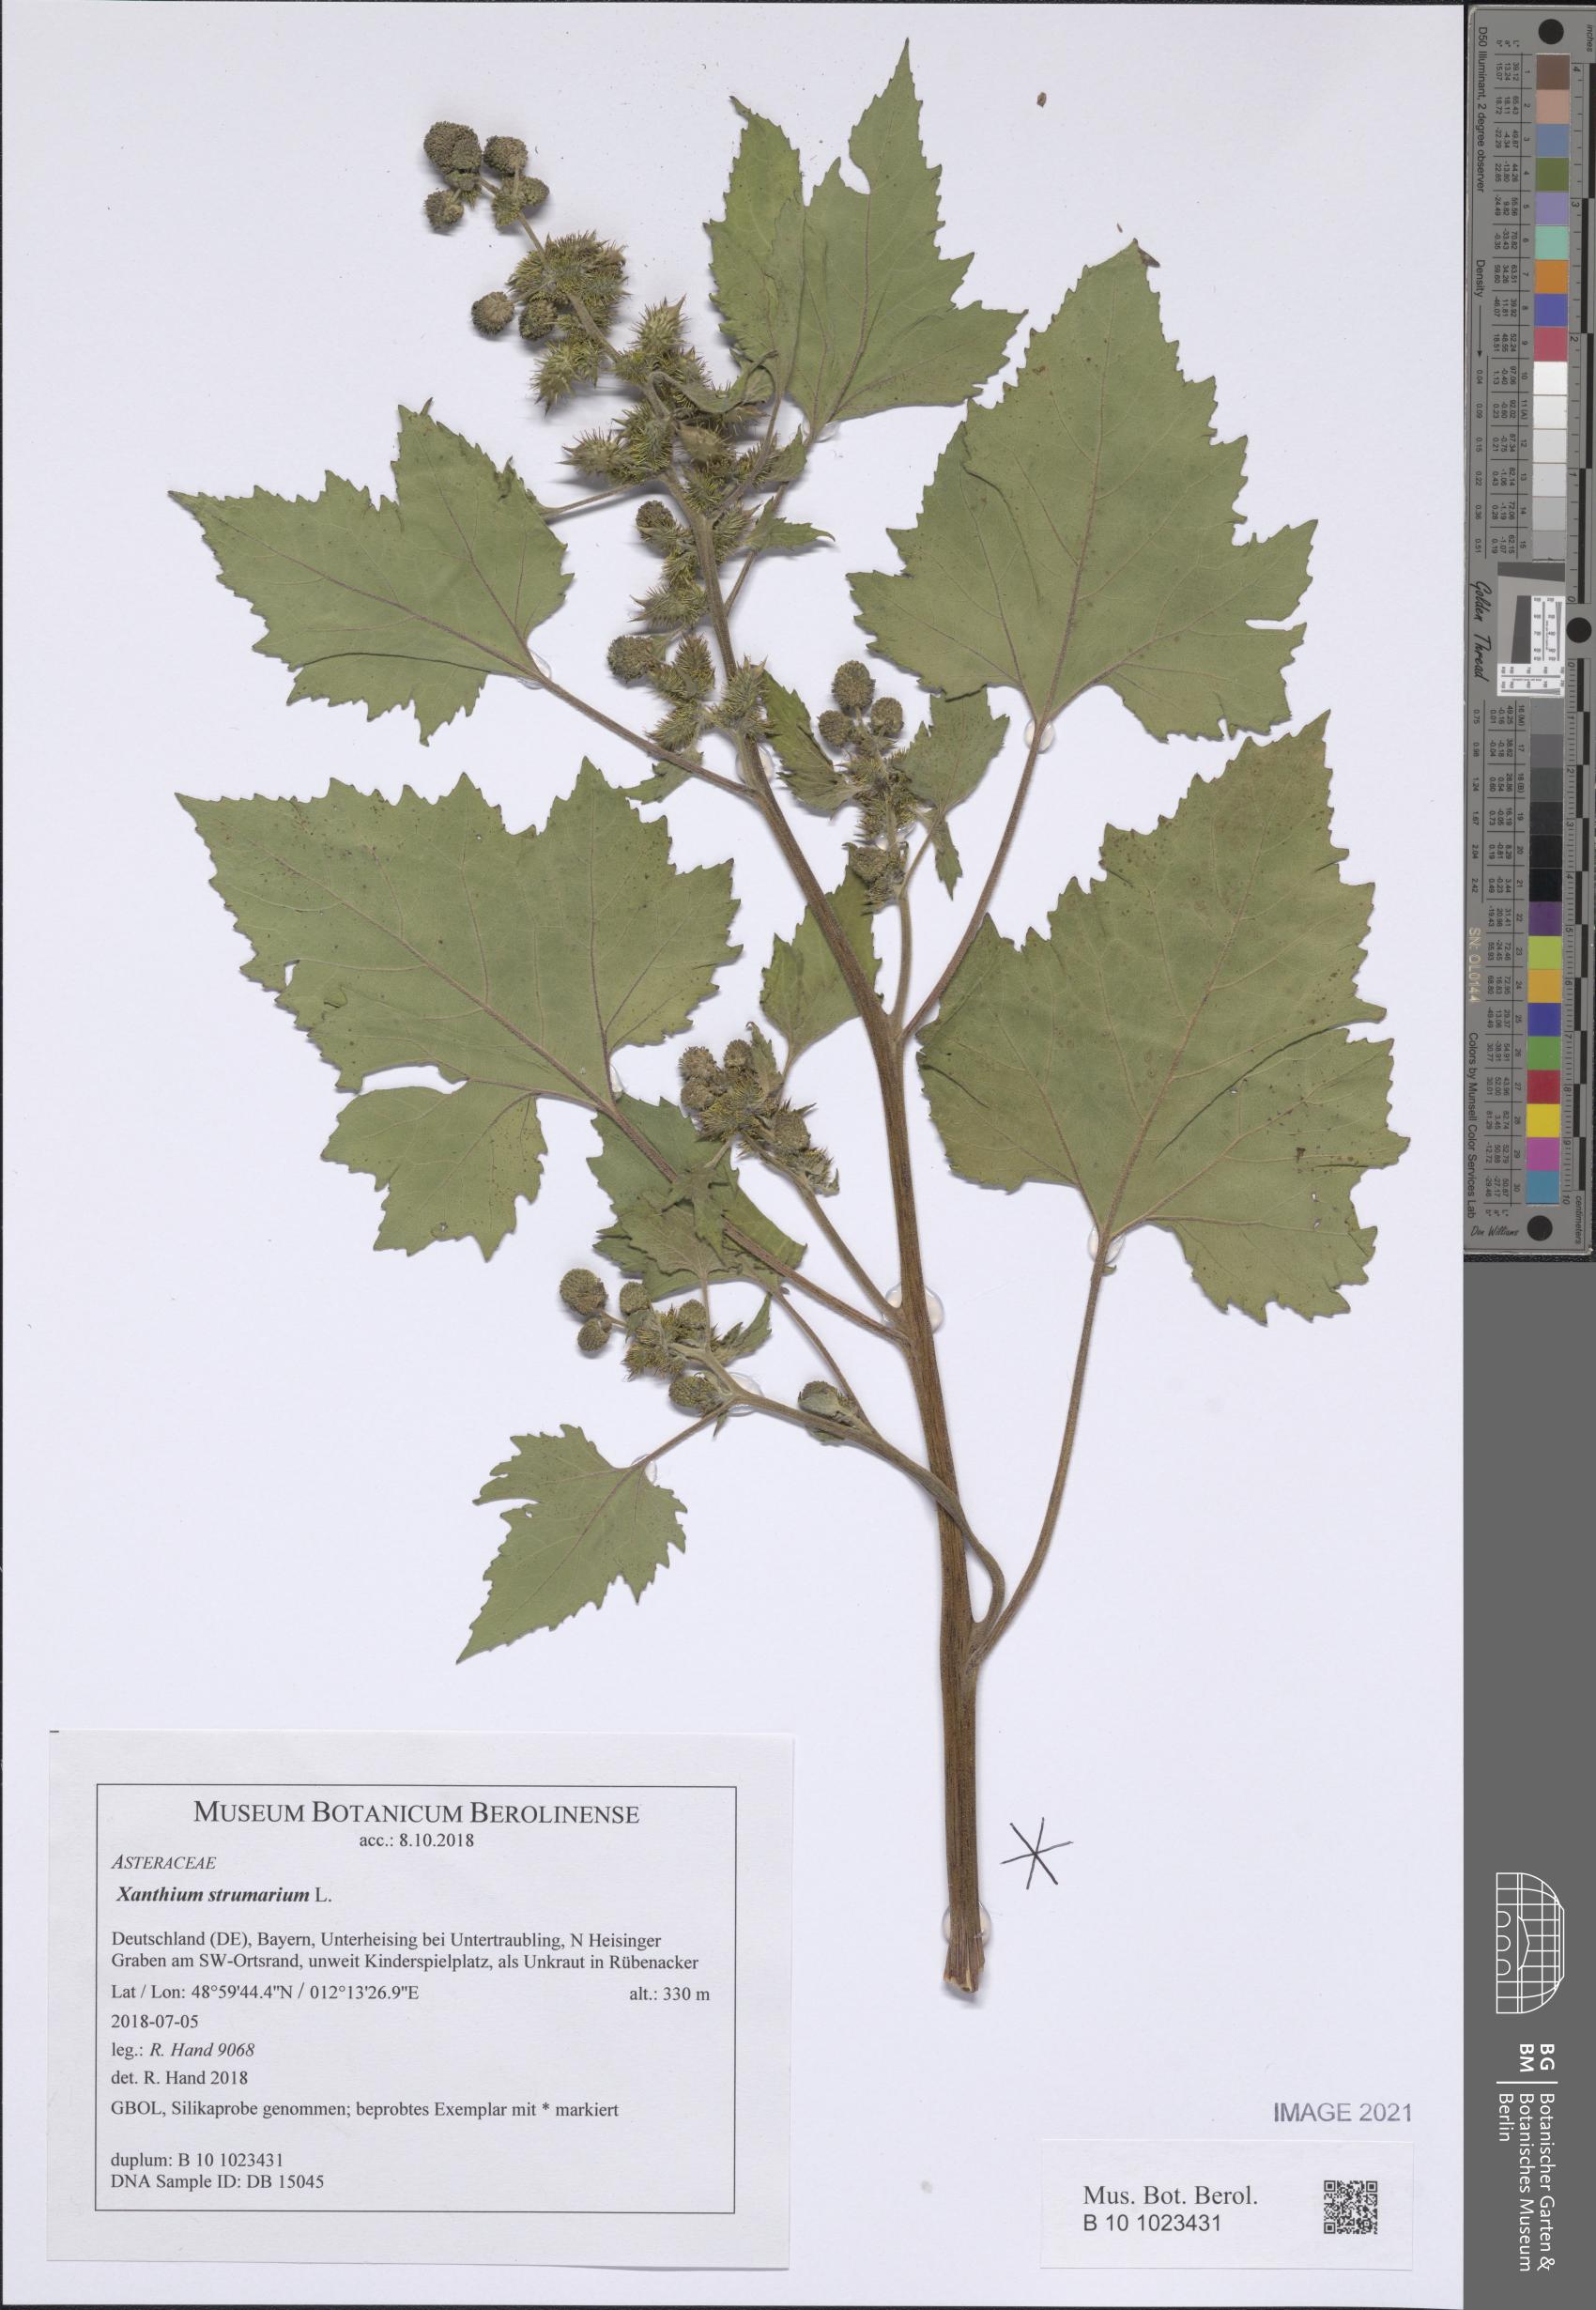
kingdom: Plantae
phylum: Tracheophyta
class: Magnoliopsida
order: Asterales
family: Asteraceae
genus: Xanthium
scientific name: Xanthium strumarium
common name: Rough cocklebur
